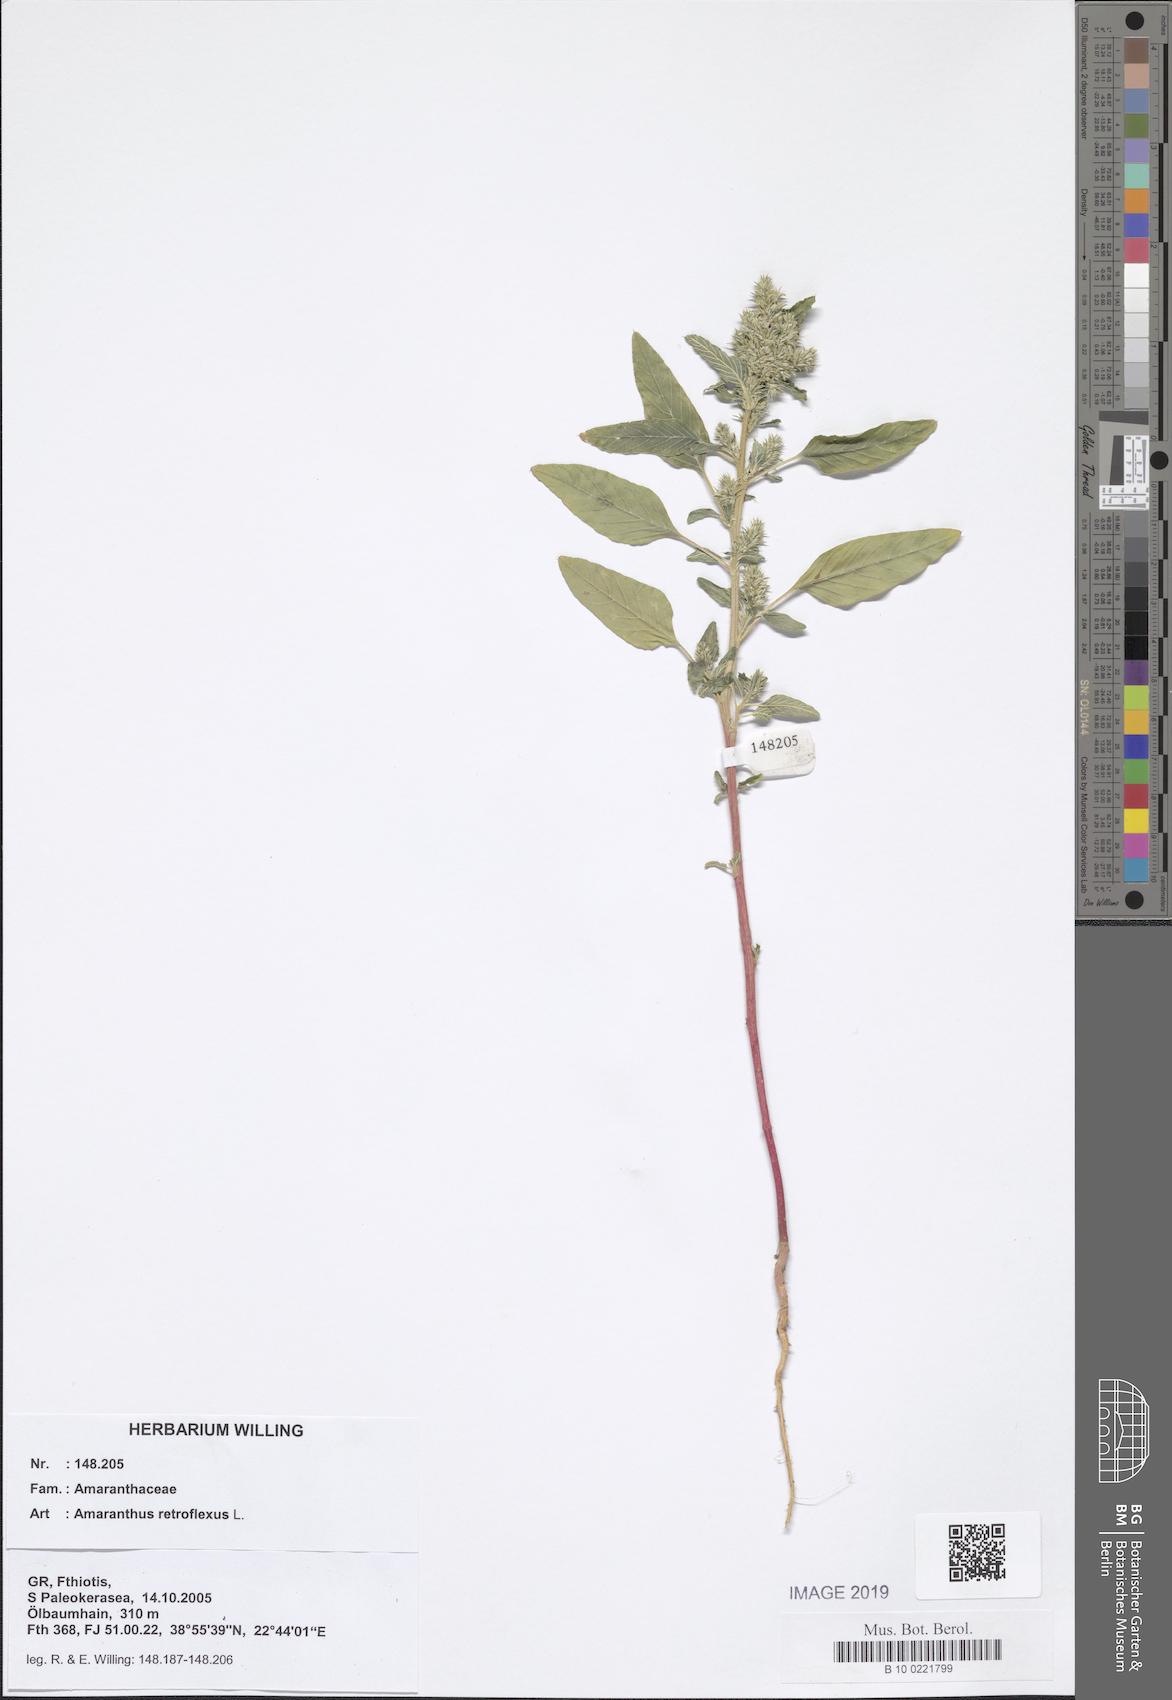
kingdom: Plantae
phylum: Tracheophyta
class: Magnoliopsida
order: Caryophyllales
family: Amaranthaceae
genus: Amaranthus
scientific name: Amaranthus retroflexus
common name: Redroot amaranth
